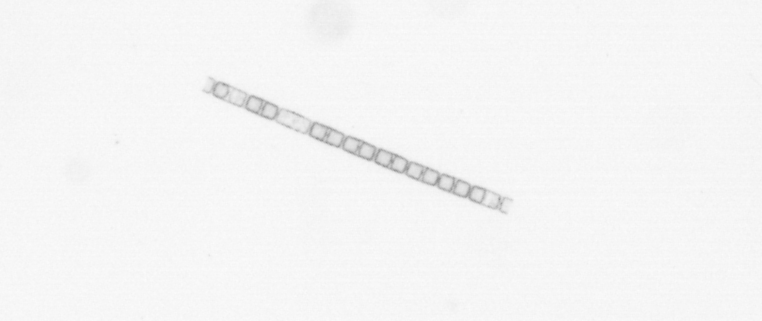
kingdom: Chromista
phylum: Ochrophyta
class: Bacillariophyceae
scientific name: Bacillariophyceae
